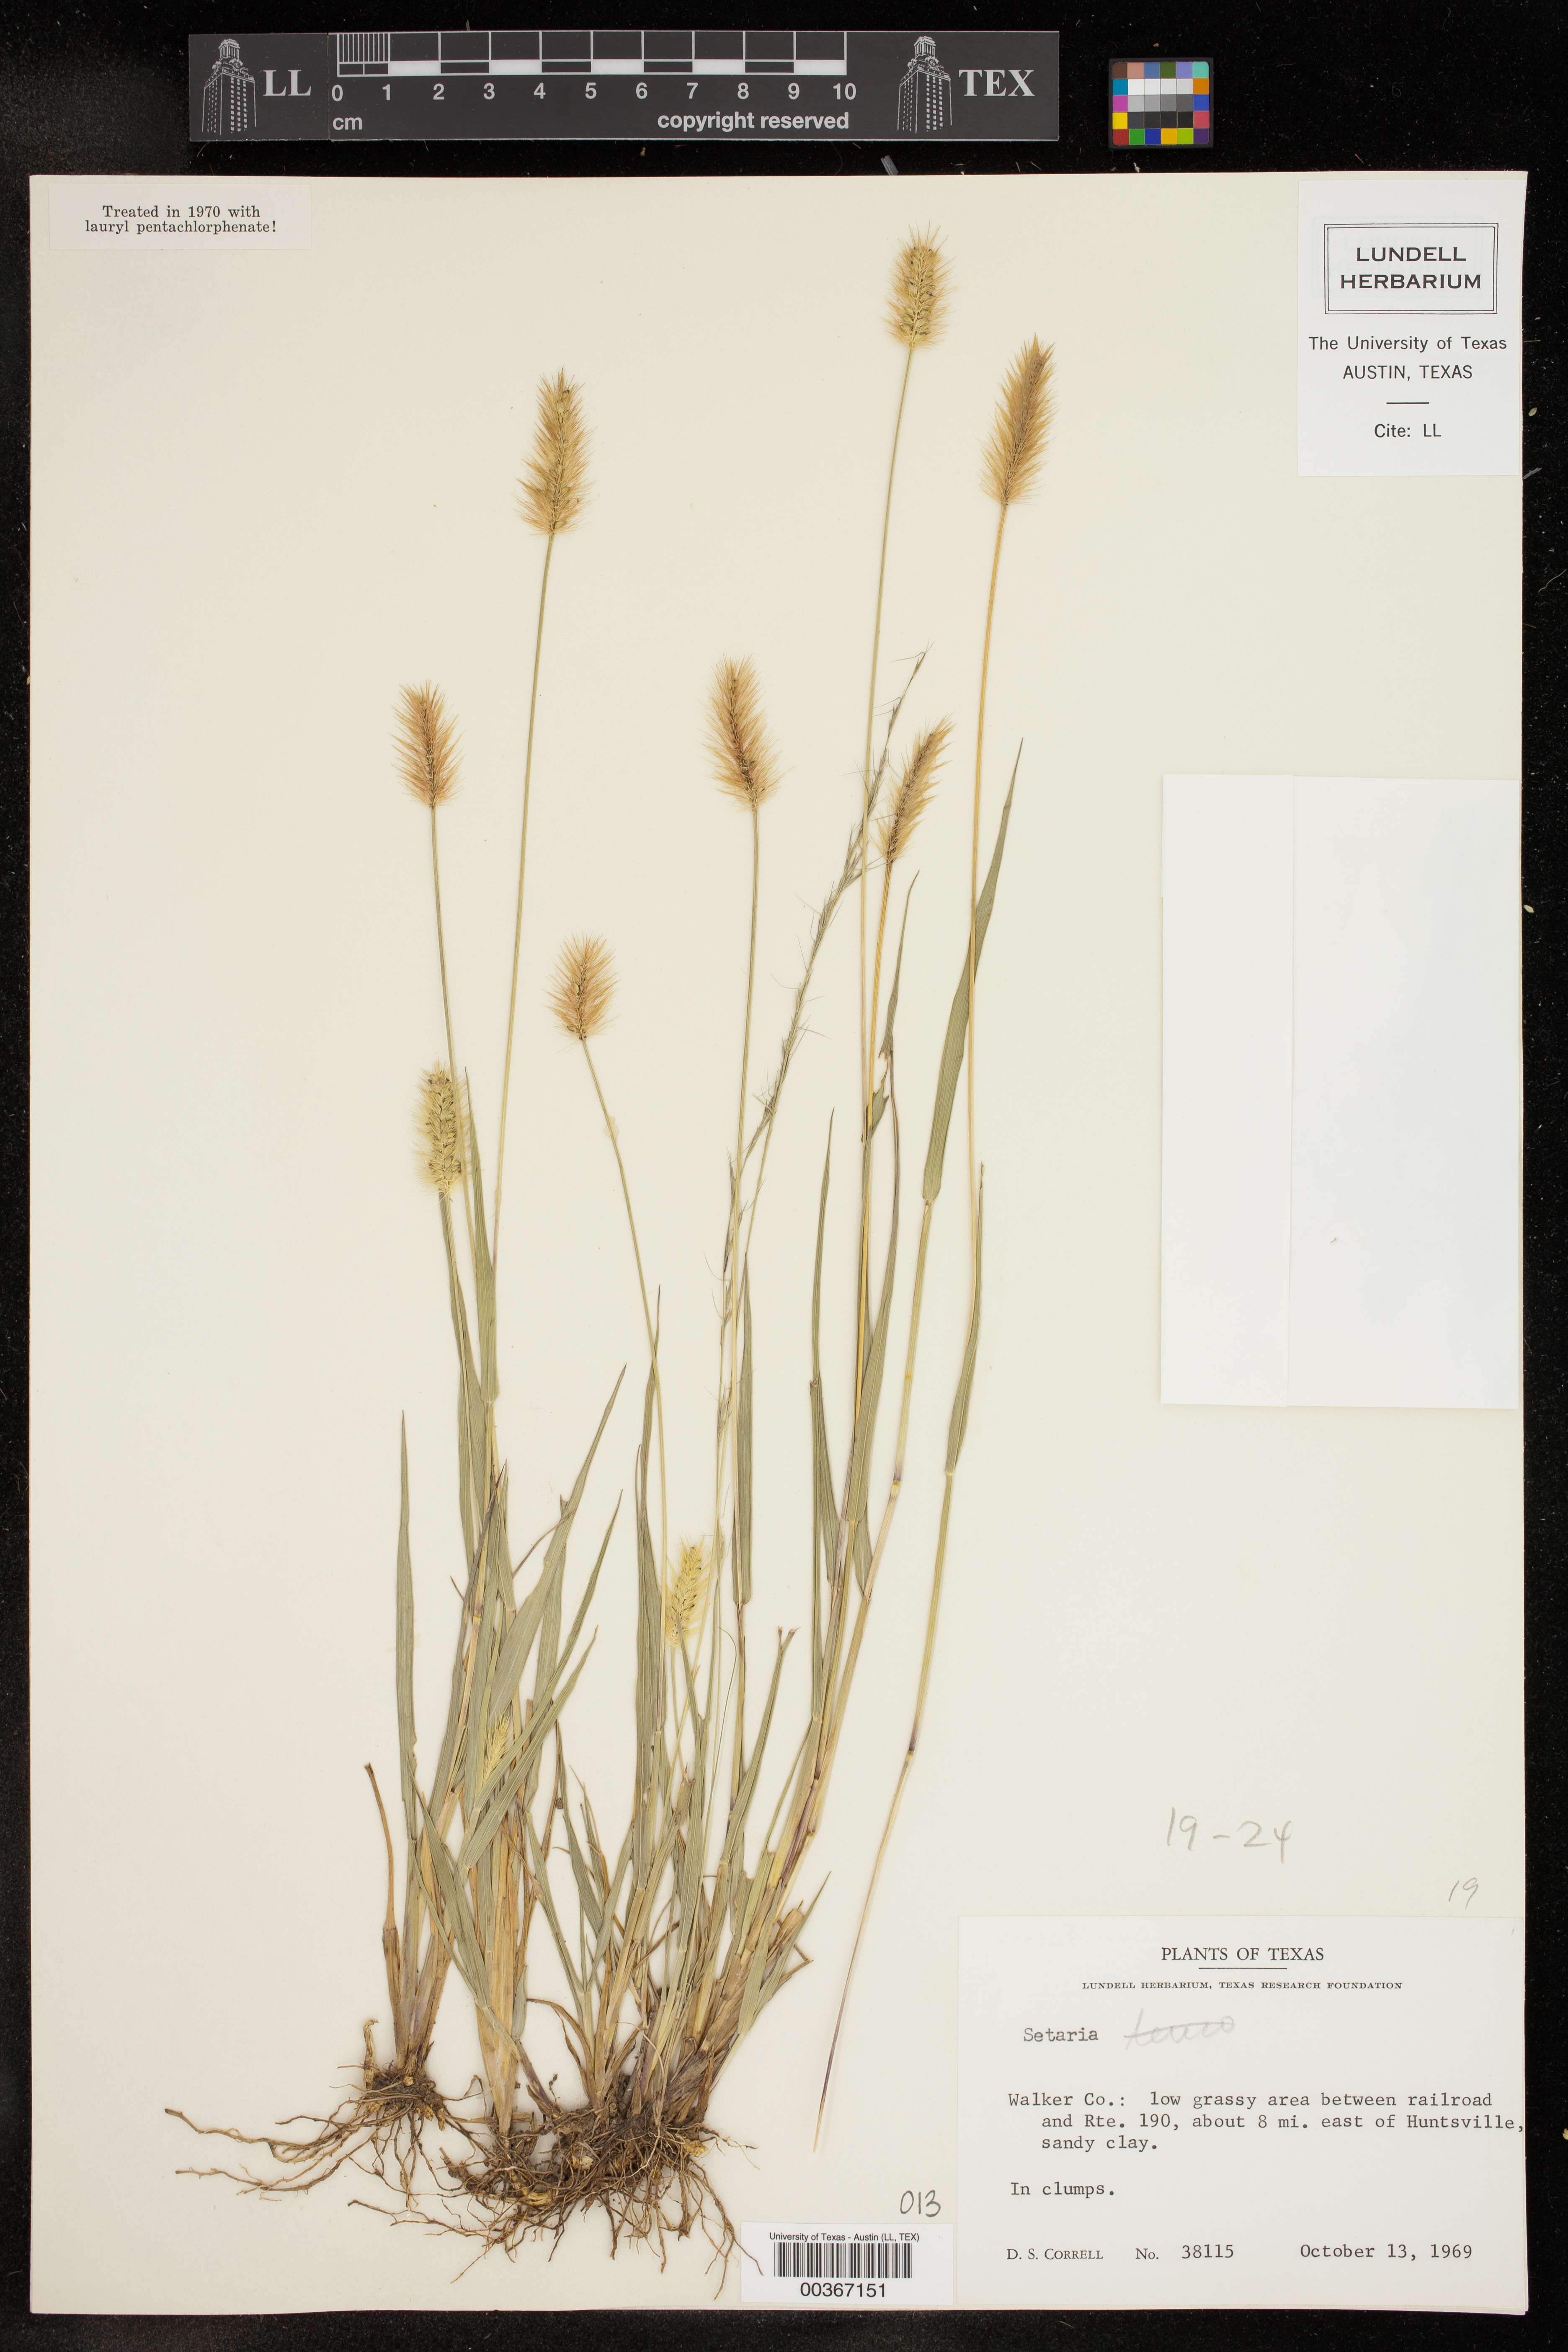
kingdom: Plantae
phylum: Tracheophyta
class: Liliopsida
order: Poales
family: Poaceae
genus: Setaria
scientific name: Setaria
